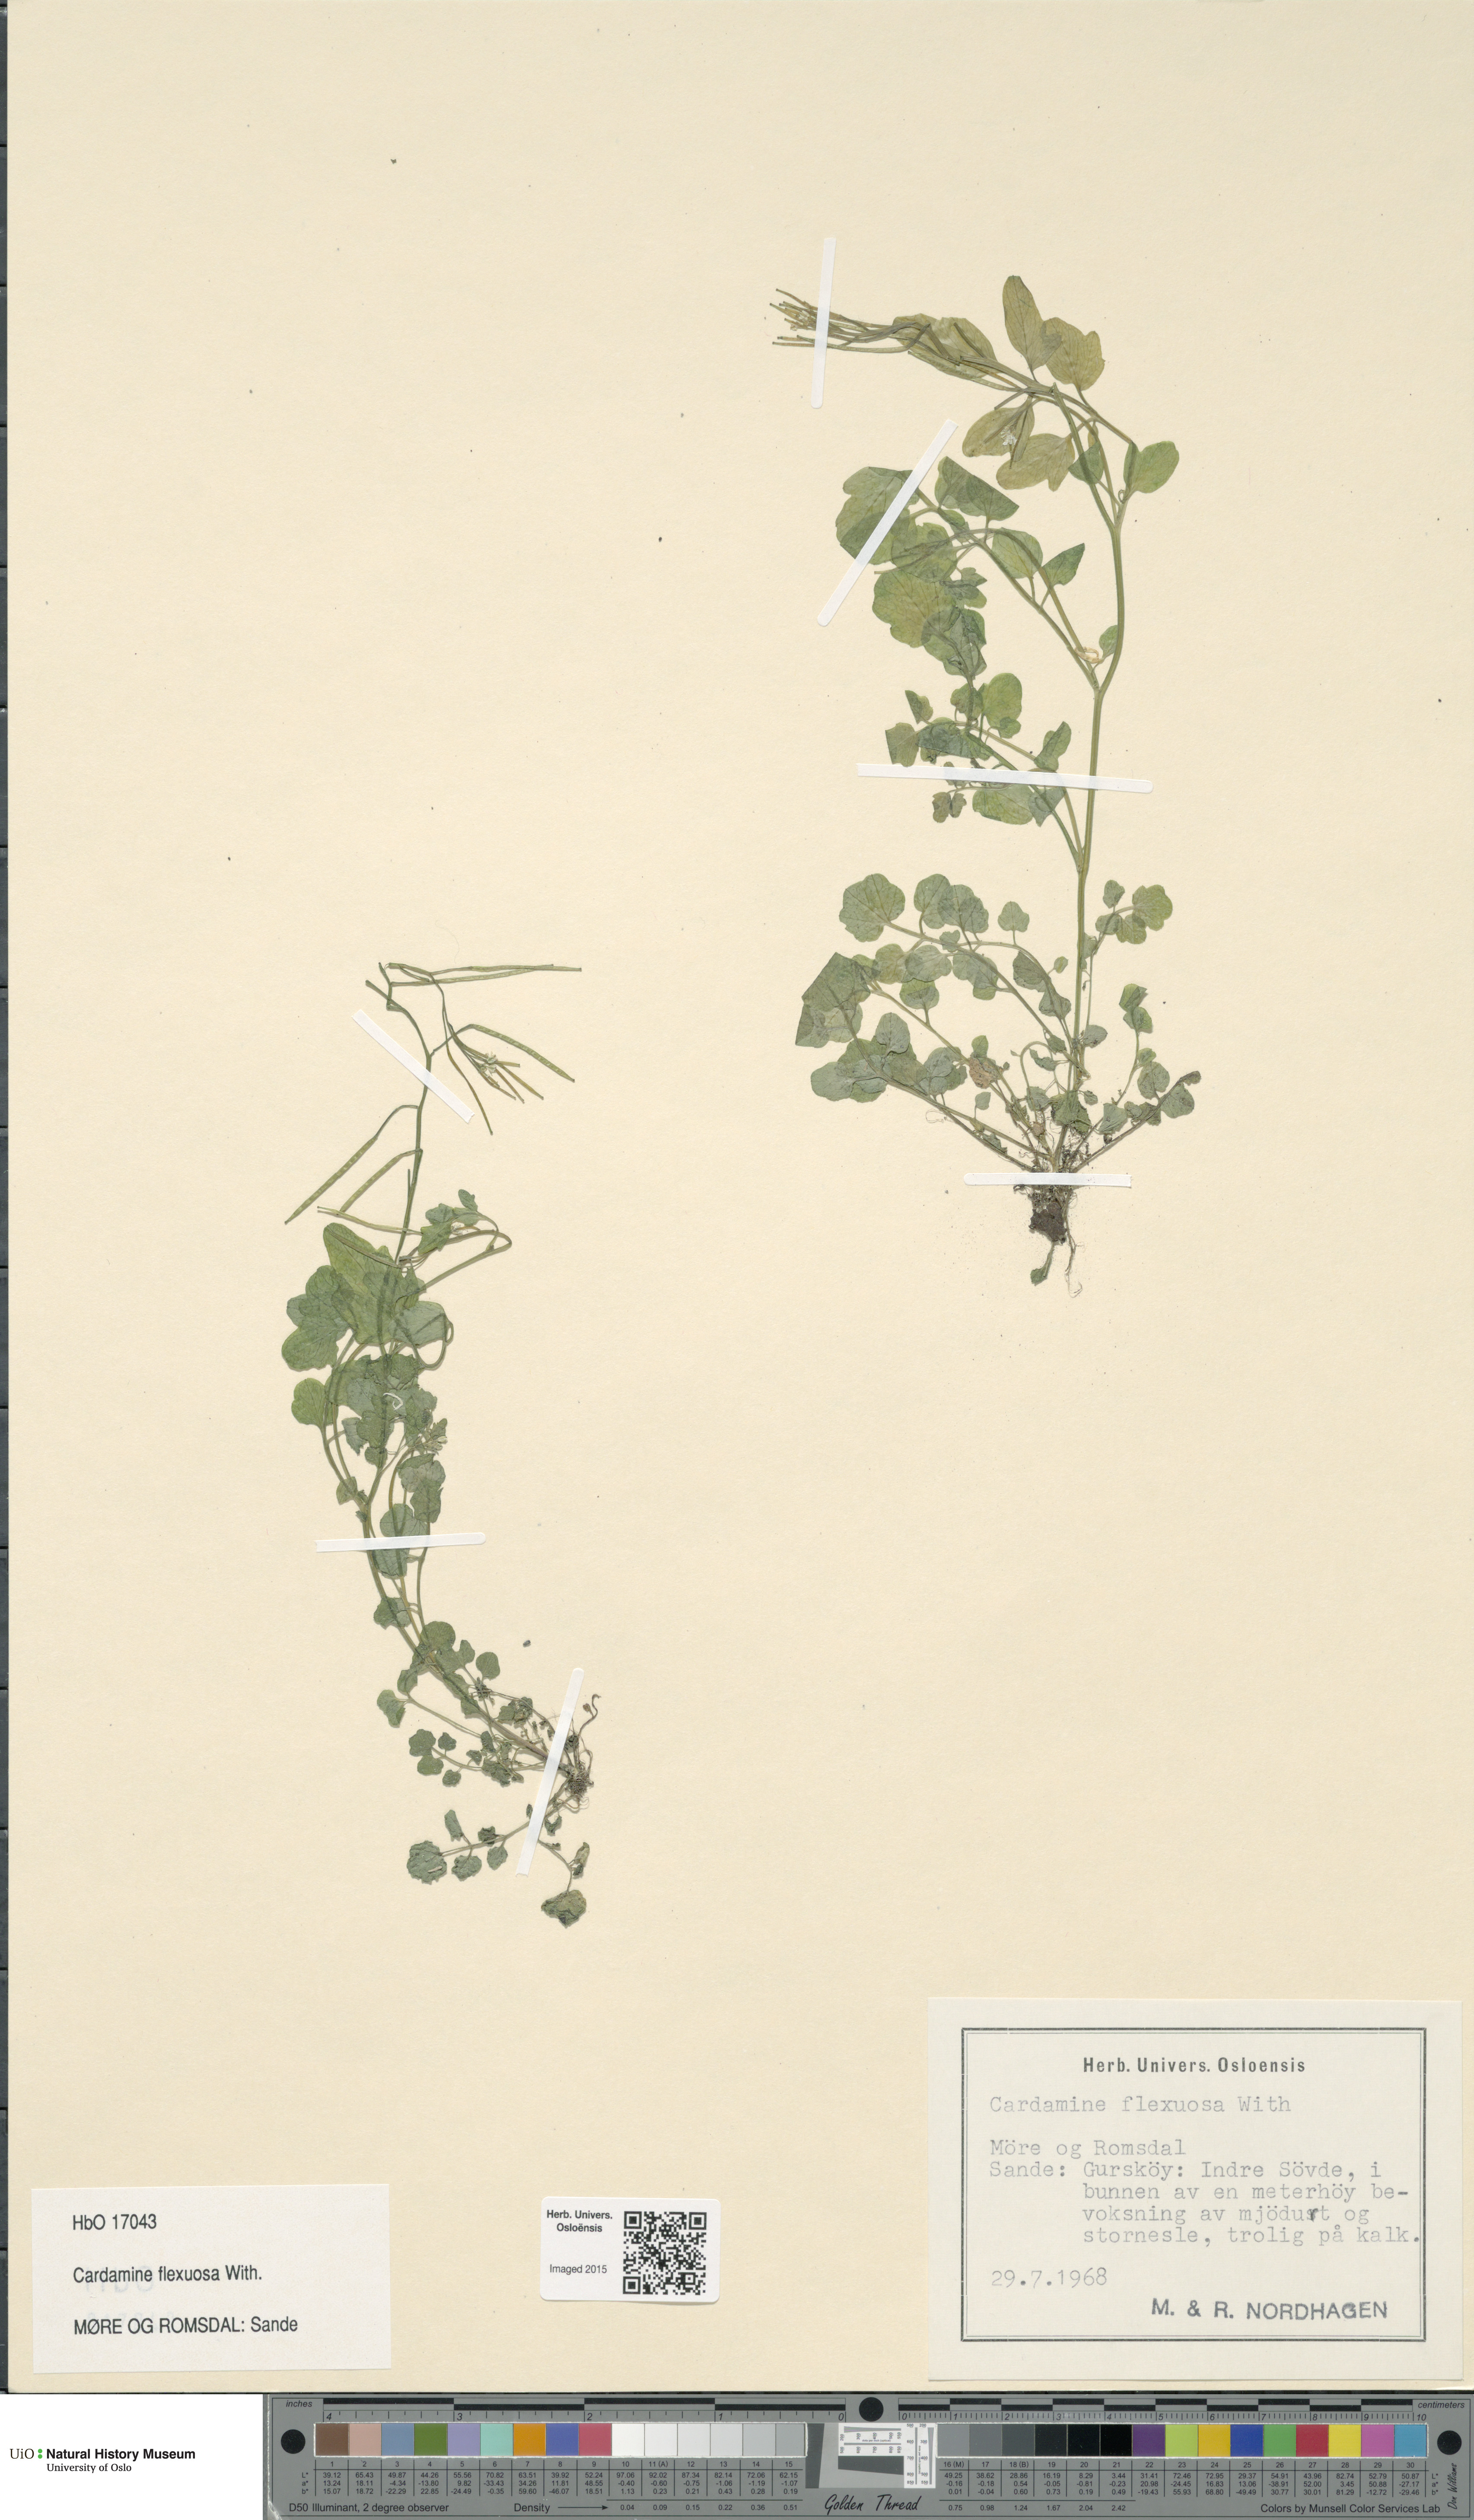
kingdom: Plantae
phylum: Tracheophyta
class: Magnoliopsida
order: Brassicales
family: Brassicaceae
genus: Cardamine
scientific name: Cardamine flexuosa
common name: Woodland bittercress
